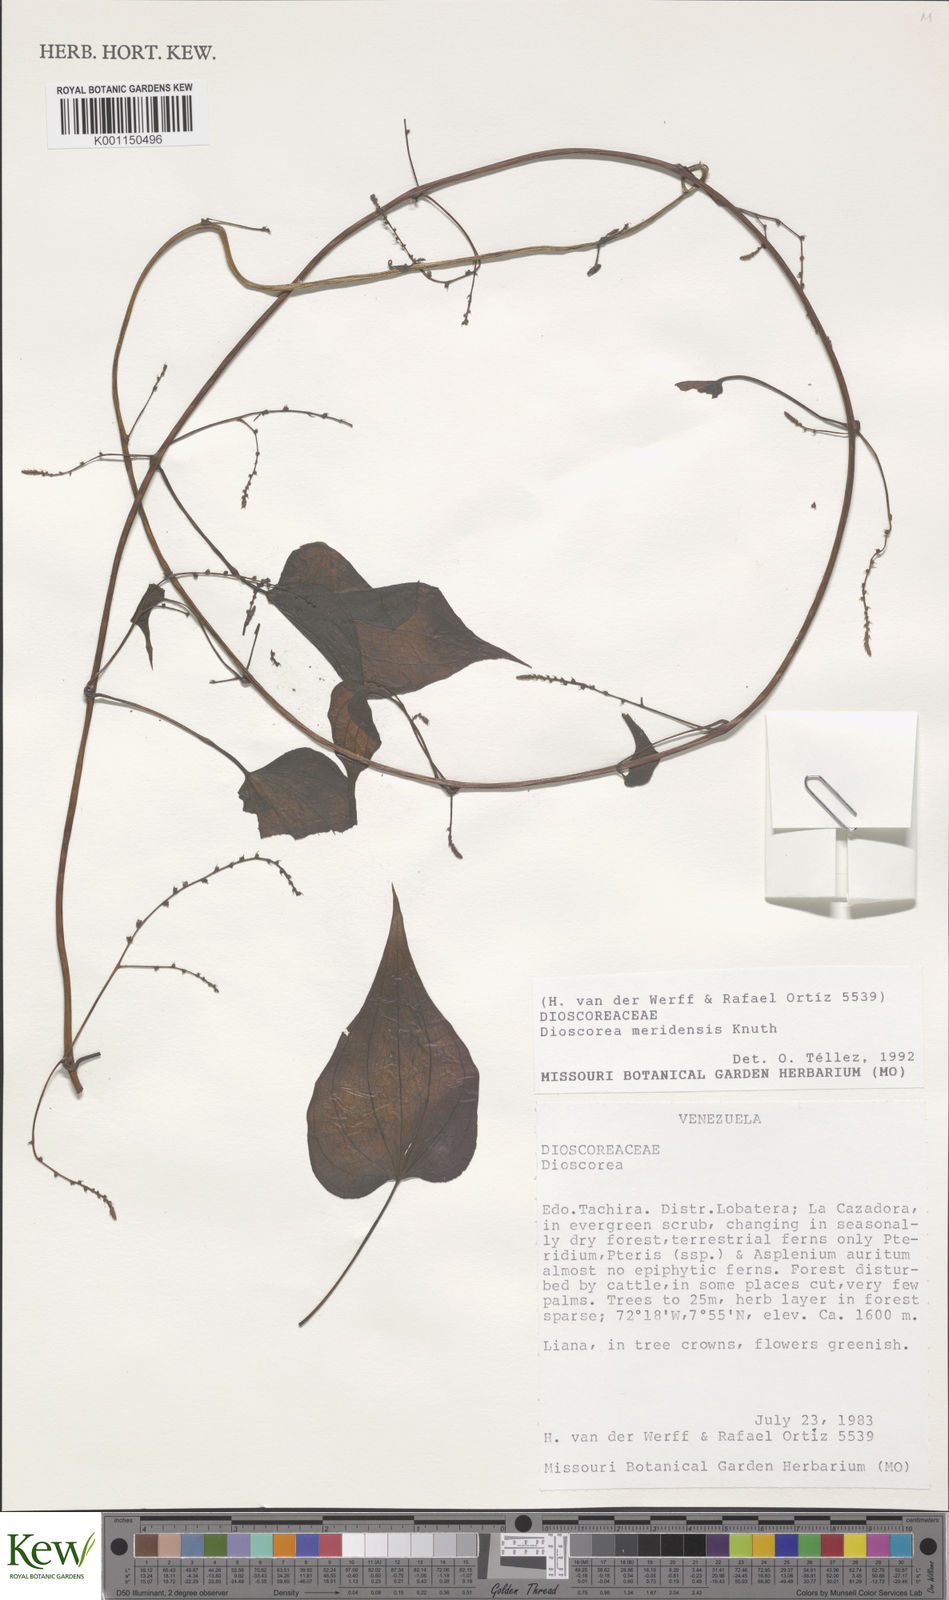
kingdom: Plantae
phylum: Tracheophyta
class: Liliopsida
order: Dioscoreales
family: Dioscoreaceae
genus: Dioscorea
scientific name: Dioscorea meridensis
